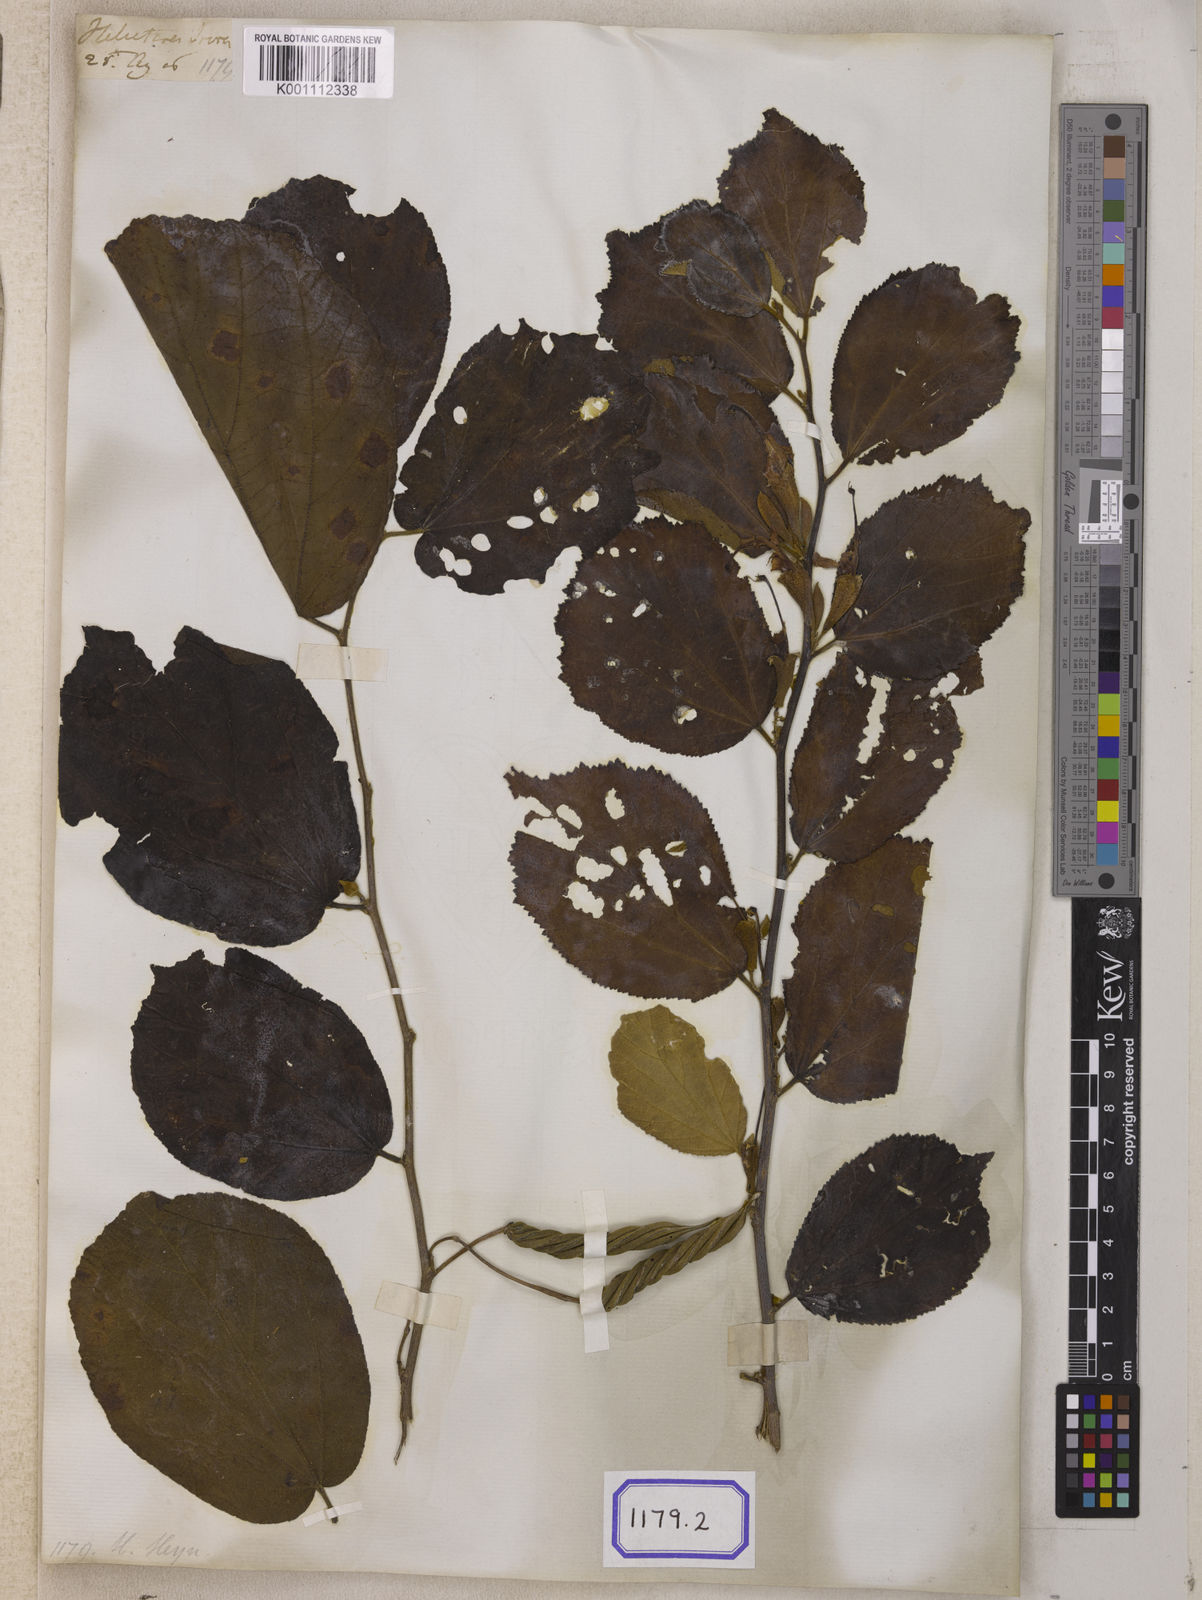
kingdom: Plantae
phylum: Tracheophyta
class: Magnoliopsida
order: Malvales
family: Malvaceae
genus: Helicteres
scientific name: Helicteres isora
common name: East indian screwtree
